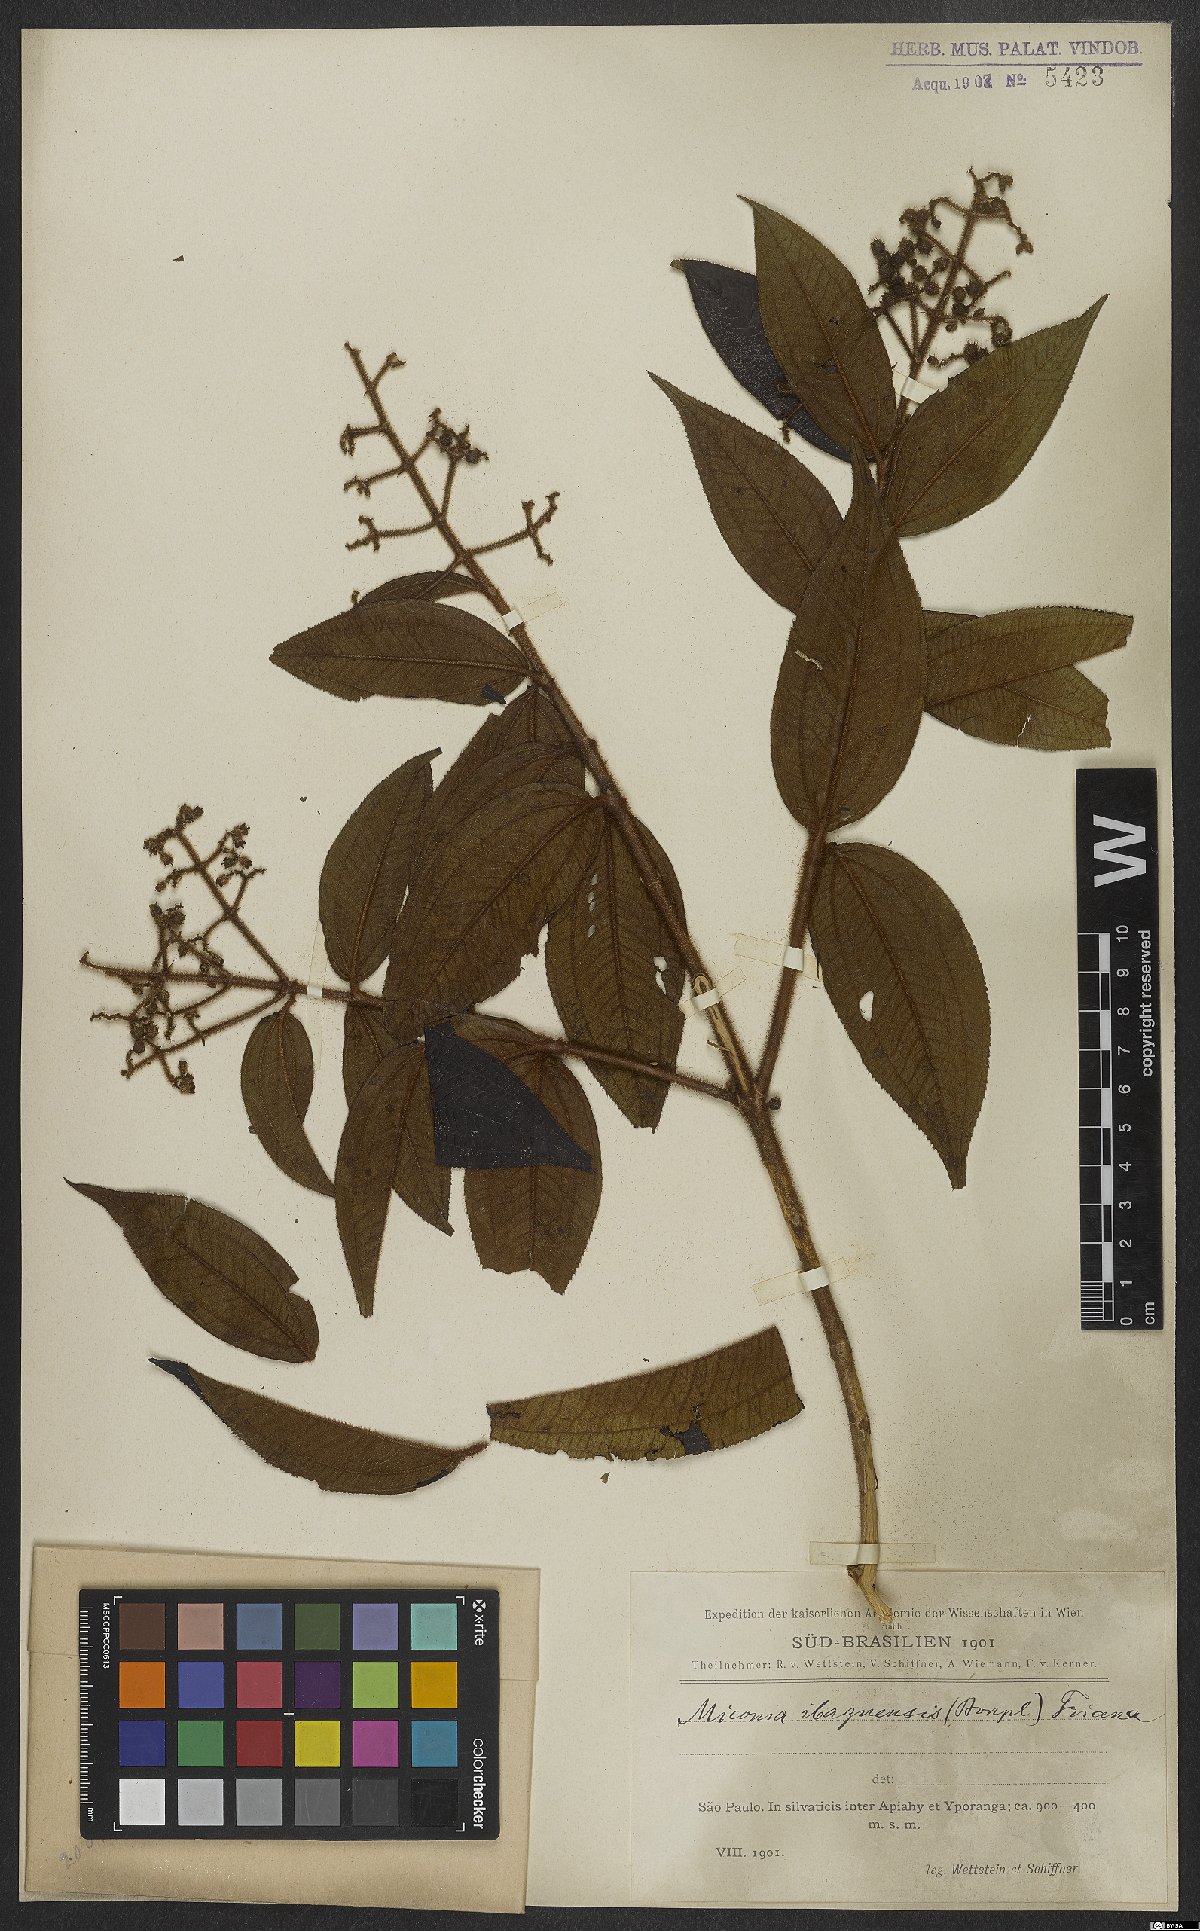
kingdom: Plantae
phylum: Tracheophyta
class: Magnoliopsida
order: Myrtales
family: Melastomataceae
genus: Miconia
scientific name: Miconia ibaguensis
